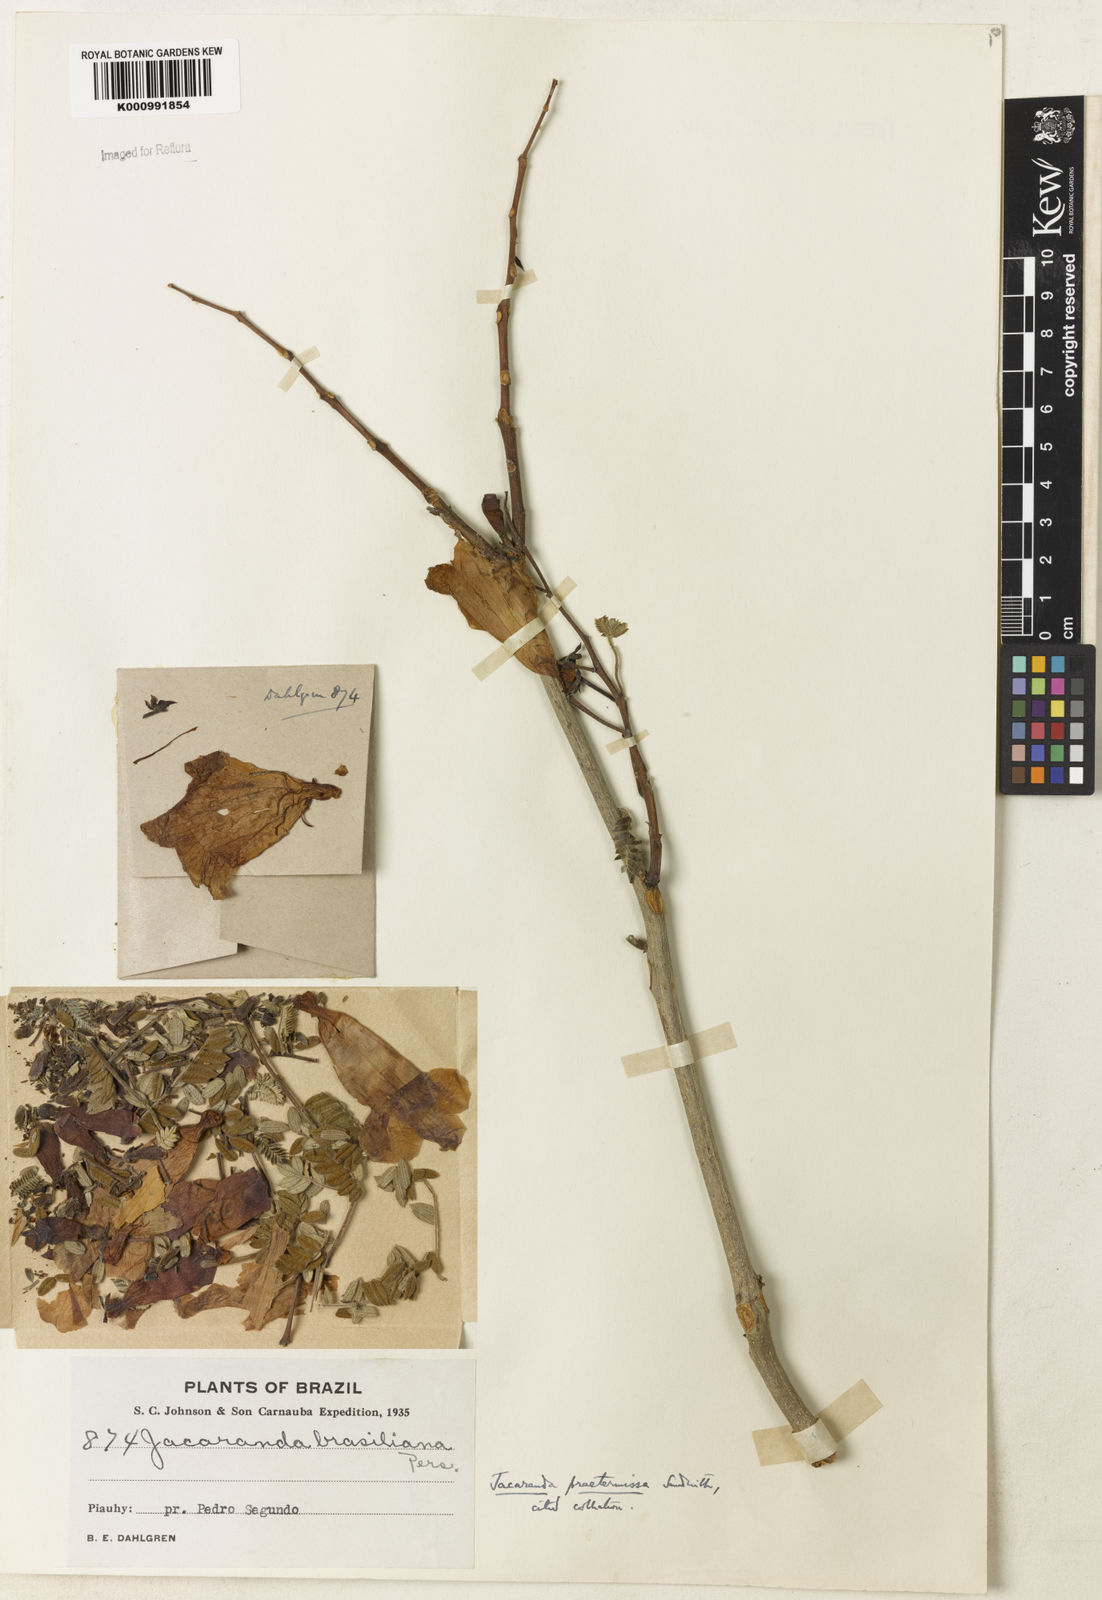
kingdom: Plantae
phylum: Tracheophyta
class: Magnoliopsida
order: Lamiales
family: Bignoniaceae
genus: Jacaranda
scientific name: Jacaranda praetermissa
